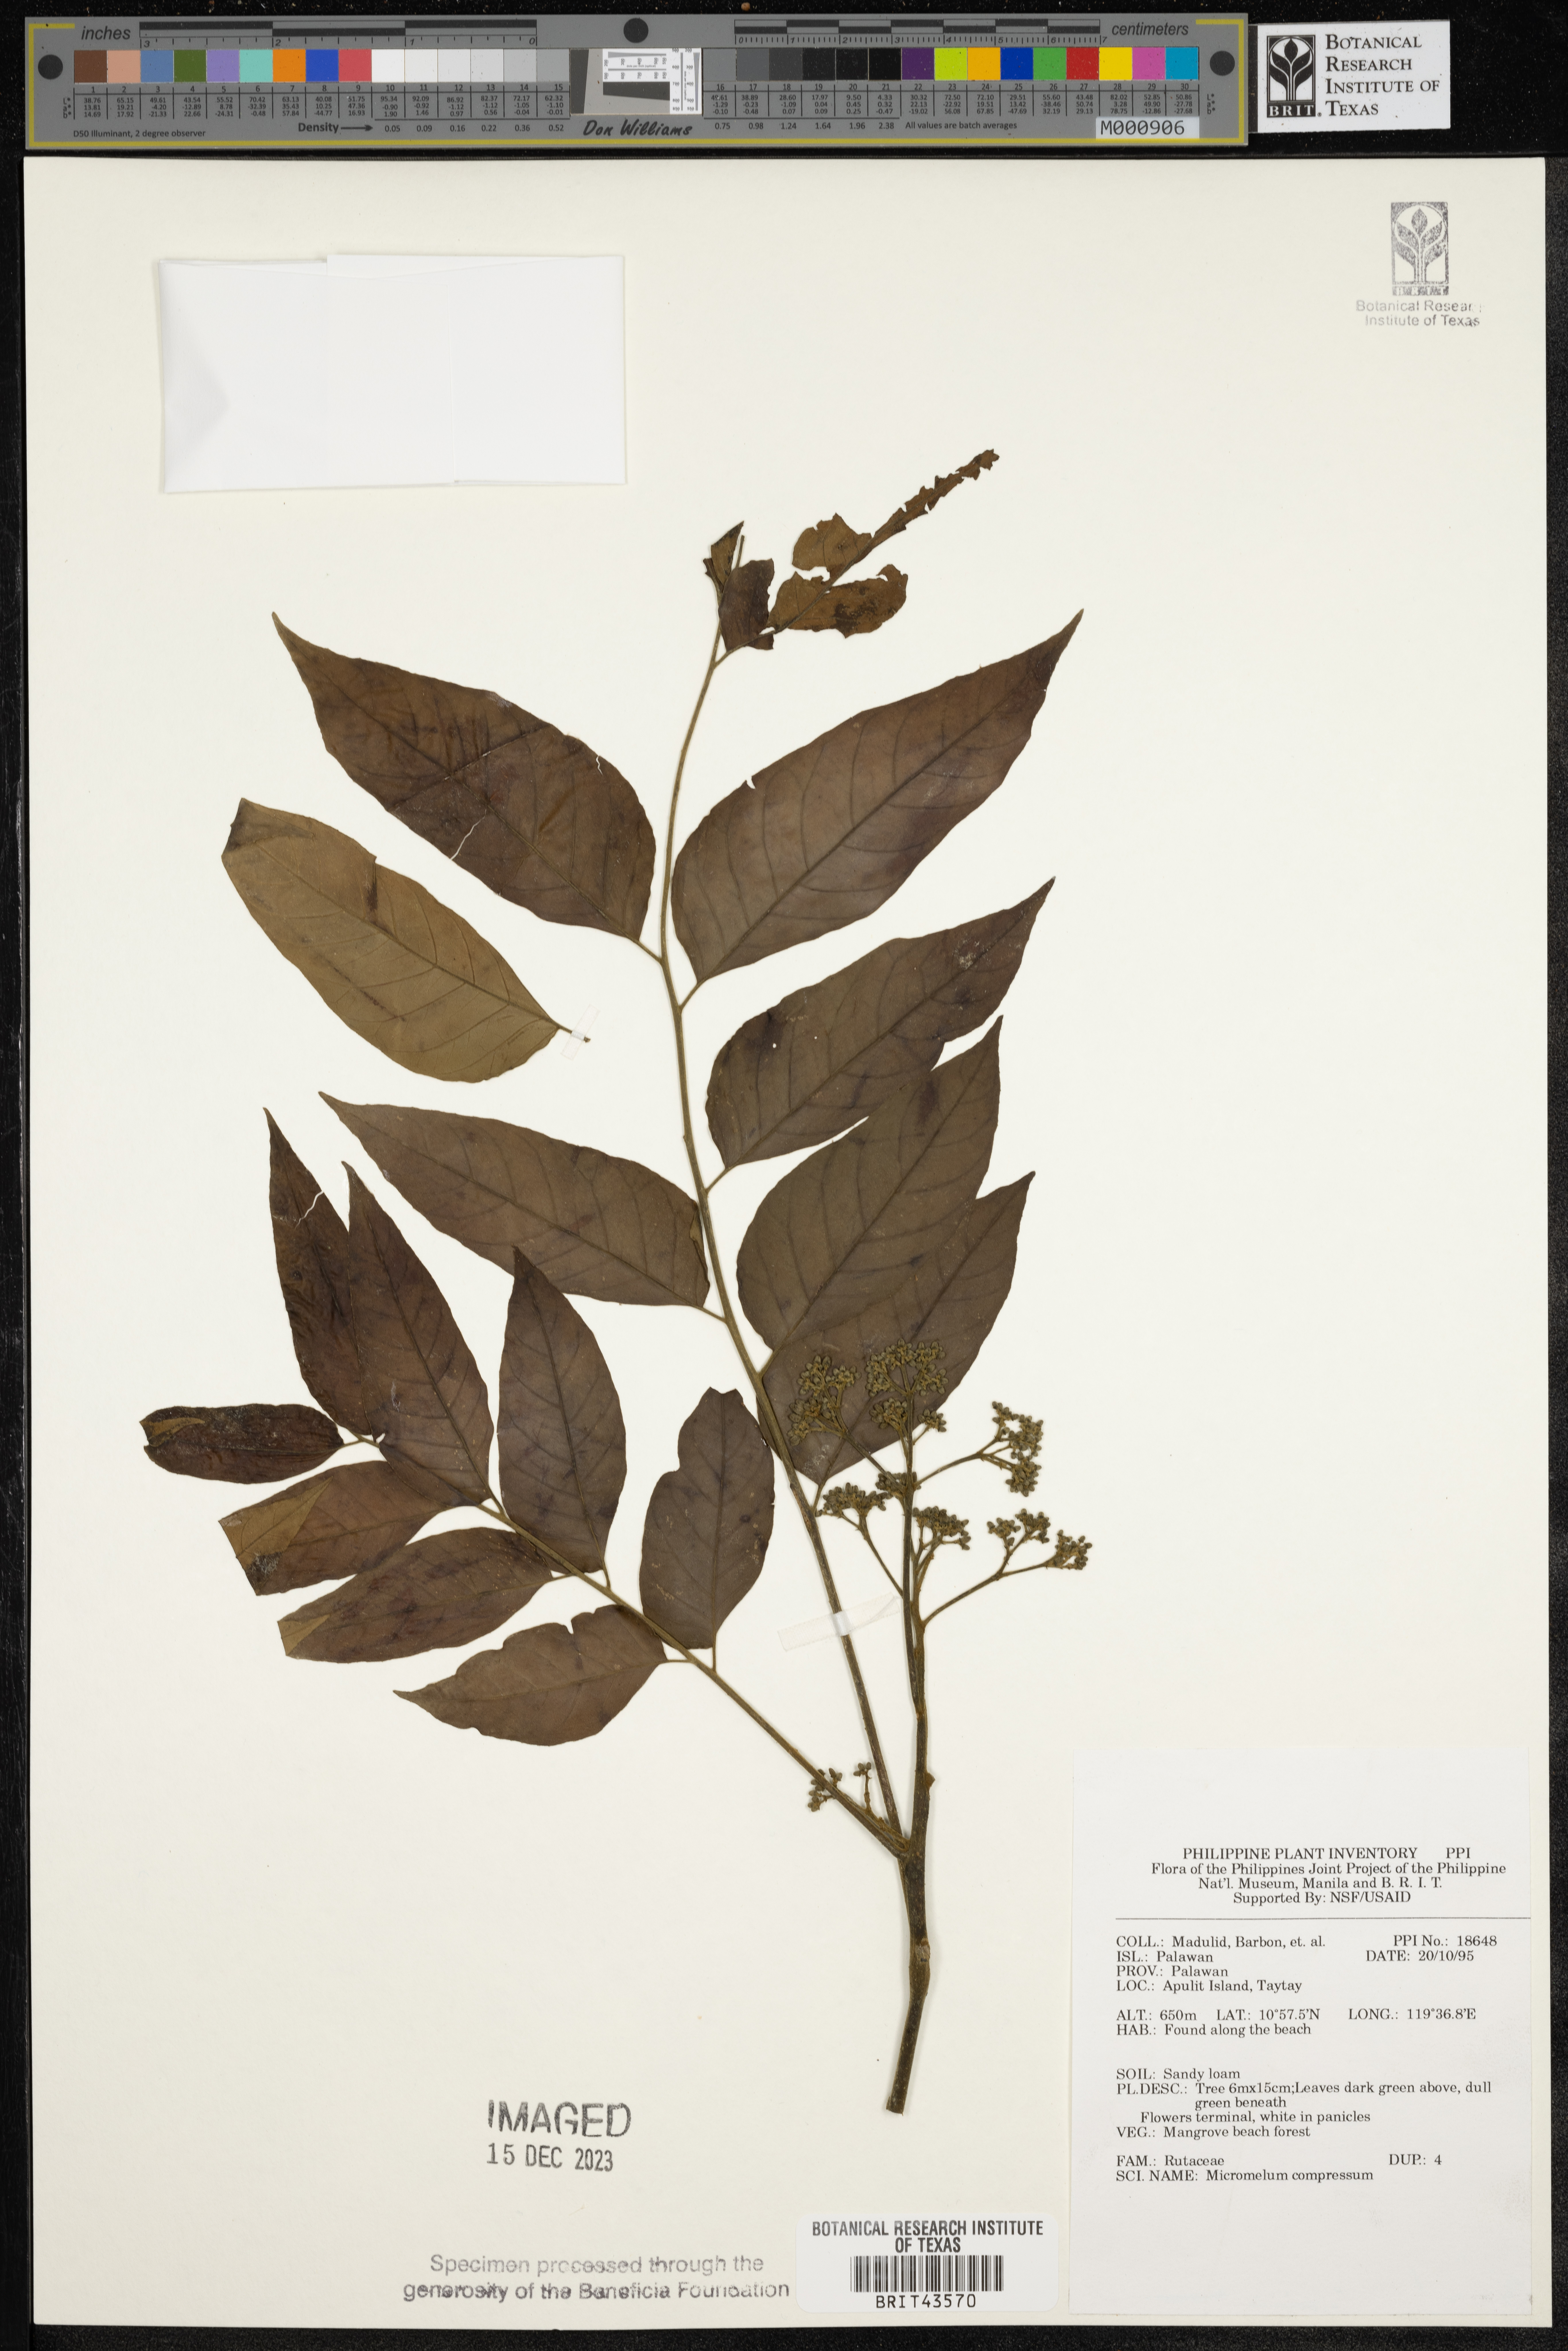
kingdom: Plantae
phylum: Tracheophyta
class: Magnoliopsida
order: Sapindales
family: Rutaceae
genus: Micromelum
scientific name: Micromelum compressum
